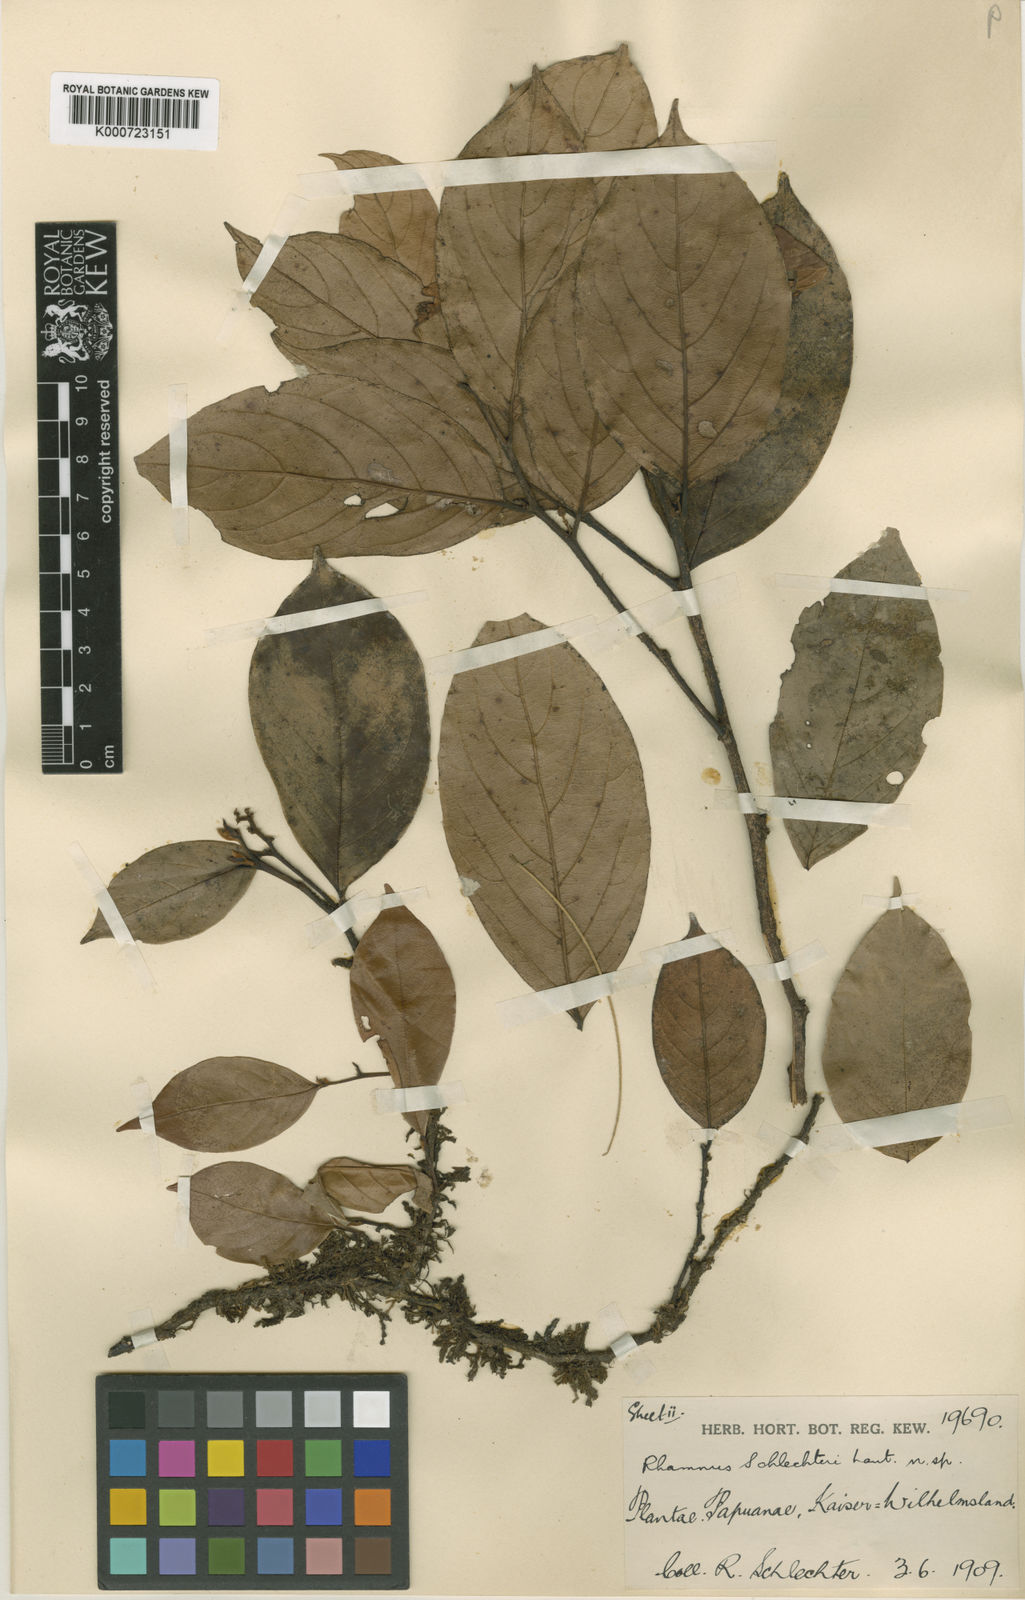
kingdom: Plantae
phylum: Tracheophyta
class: Magnoliopsida
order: Rosales
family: Rhamnaceae
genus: Rhamnus
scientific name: Rhamnus schlechteri
